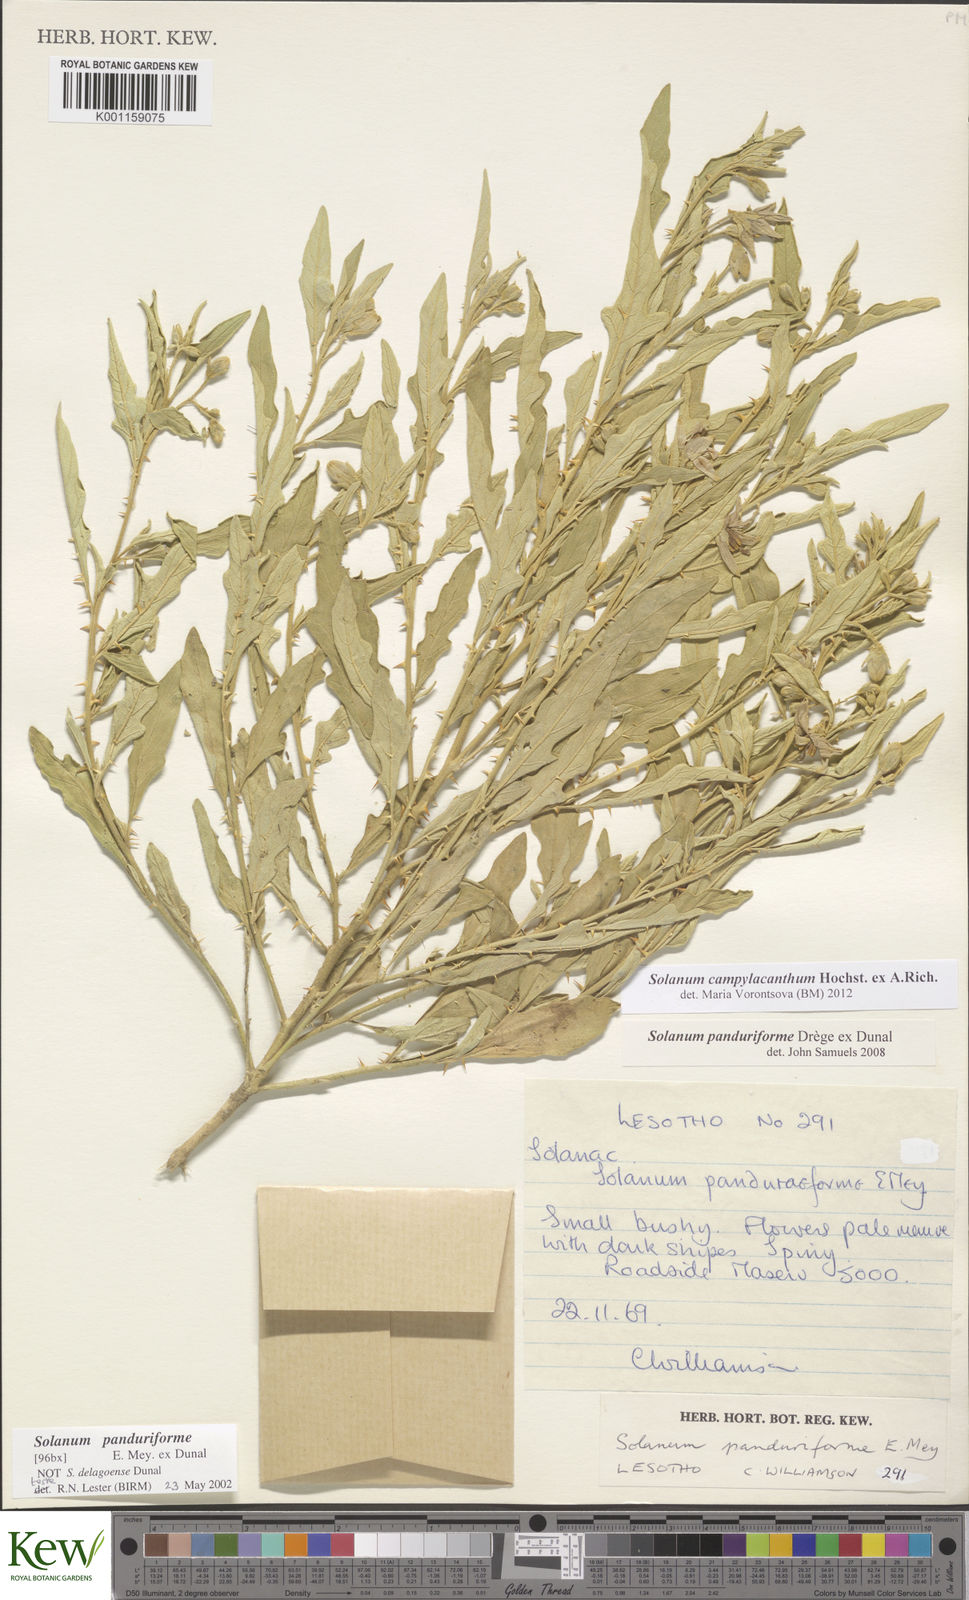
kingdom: Plantae
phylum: Tracheophyta
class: Magnoliopsida
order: Solanales
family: Solanaceae
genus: Solanum
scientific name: Solanum campylacanthum
